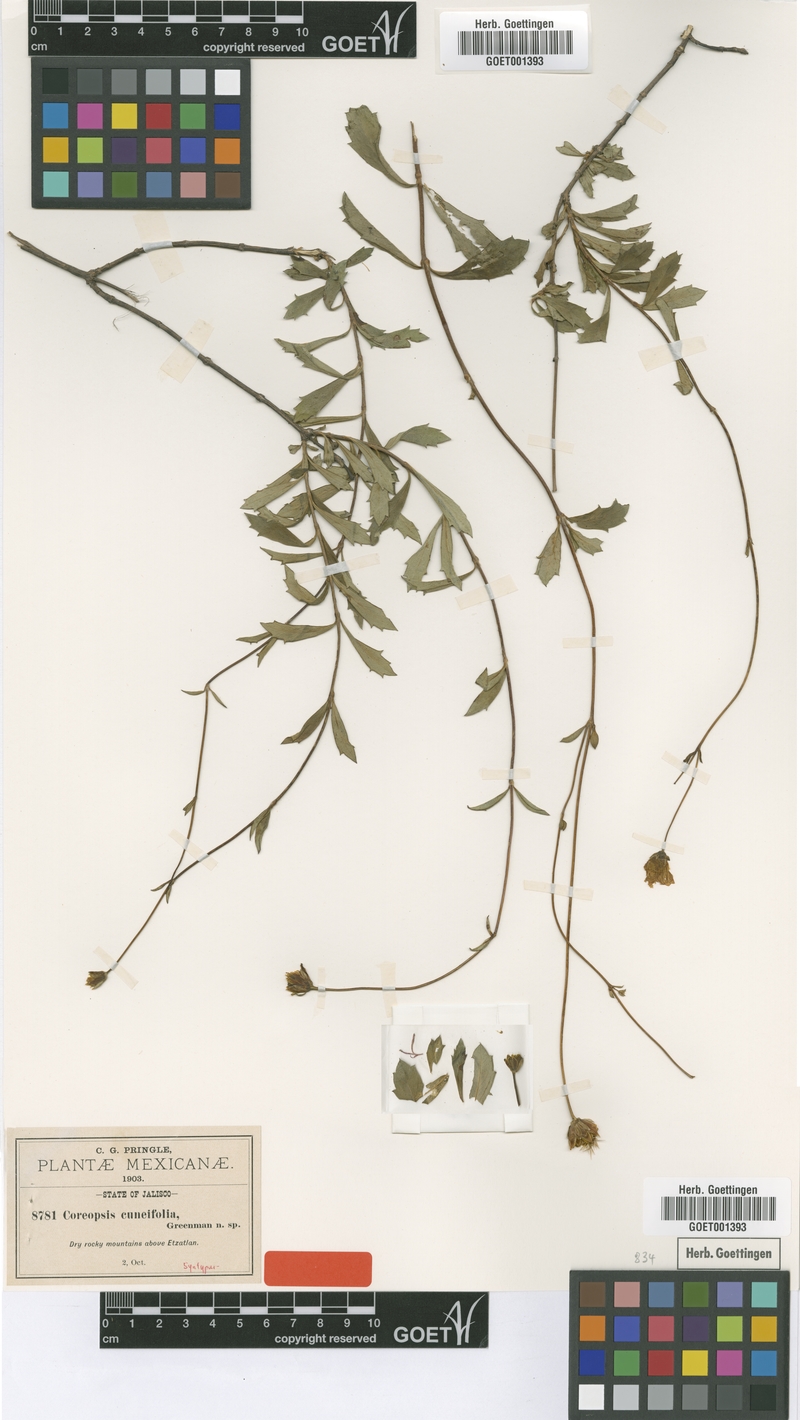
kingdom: Plantae
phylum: Tracheophyta
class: Magnoliopsida
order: Asterales
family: Asteraceae
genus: Electranthera
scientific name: Electranthera cuneifolia
